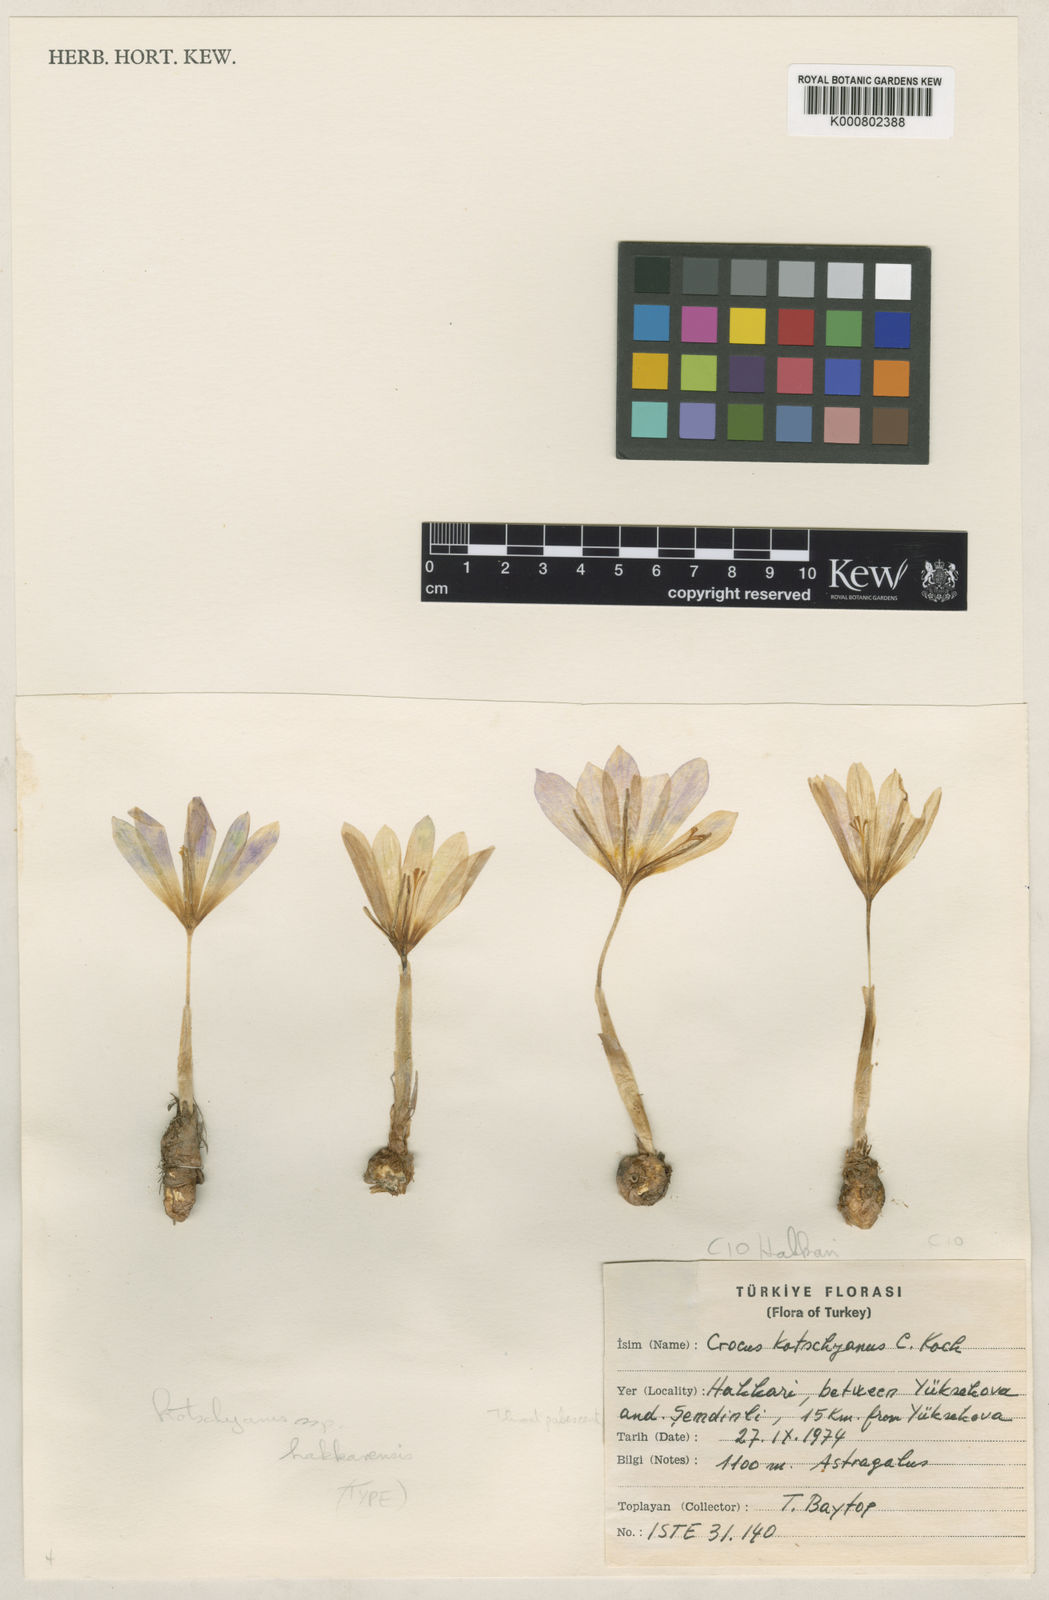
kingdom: Plantae
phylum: Tracheophyta
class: Liliopsida
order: Asparagales
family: Iridaceae
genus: Crocus
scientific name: Crocus hakkariensis
